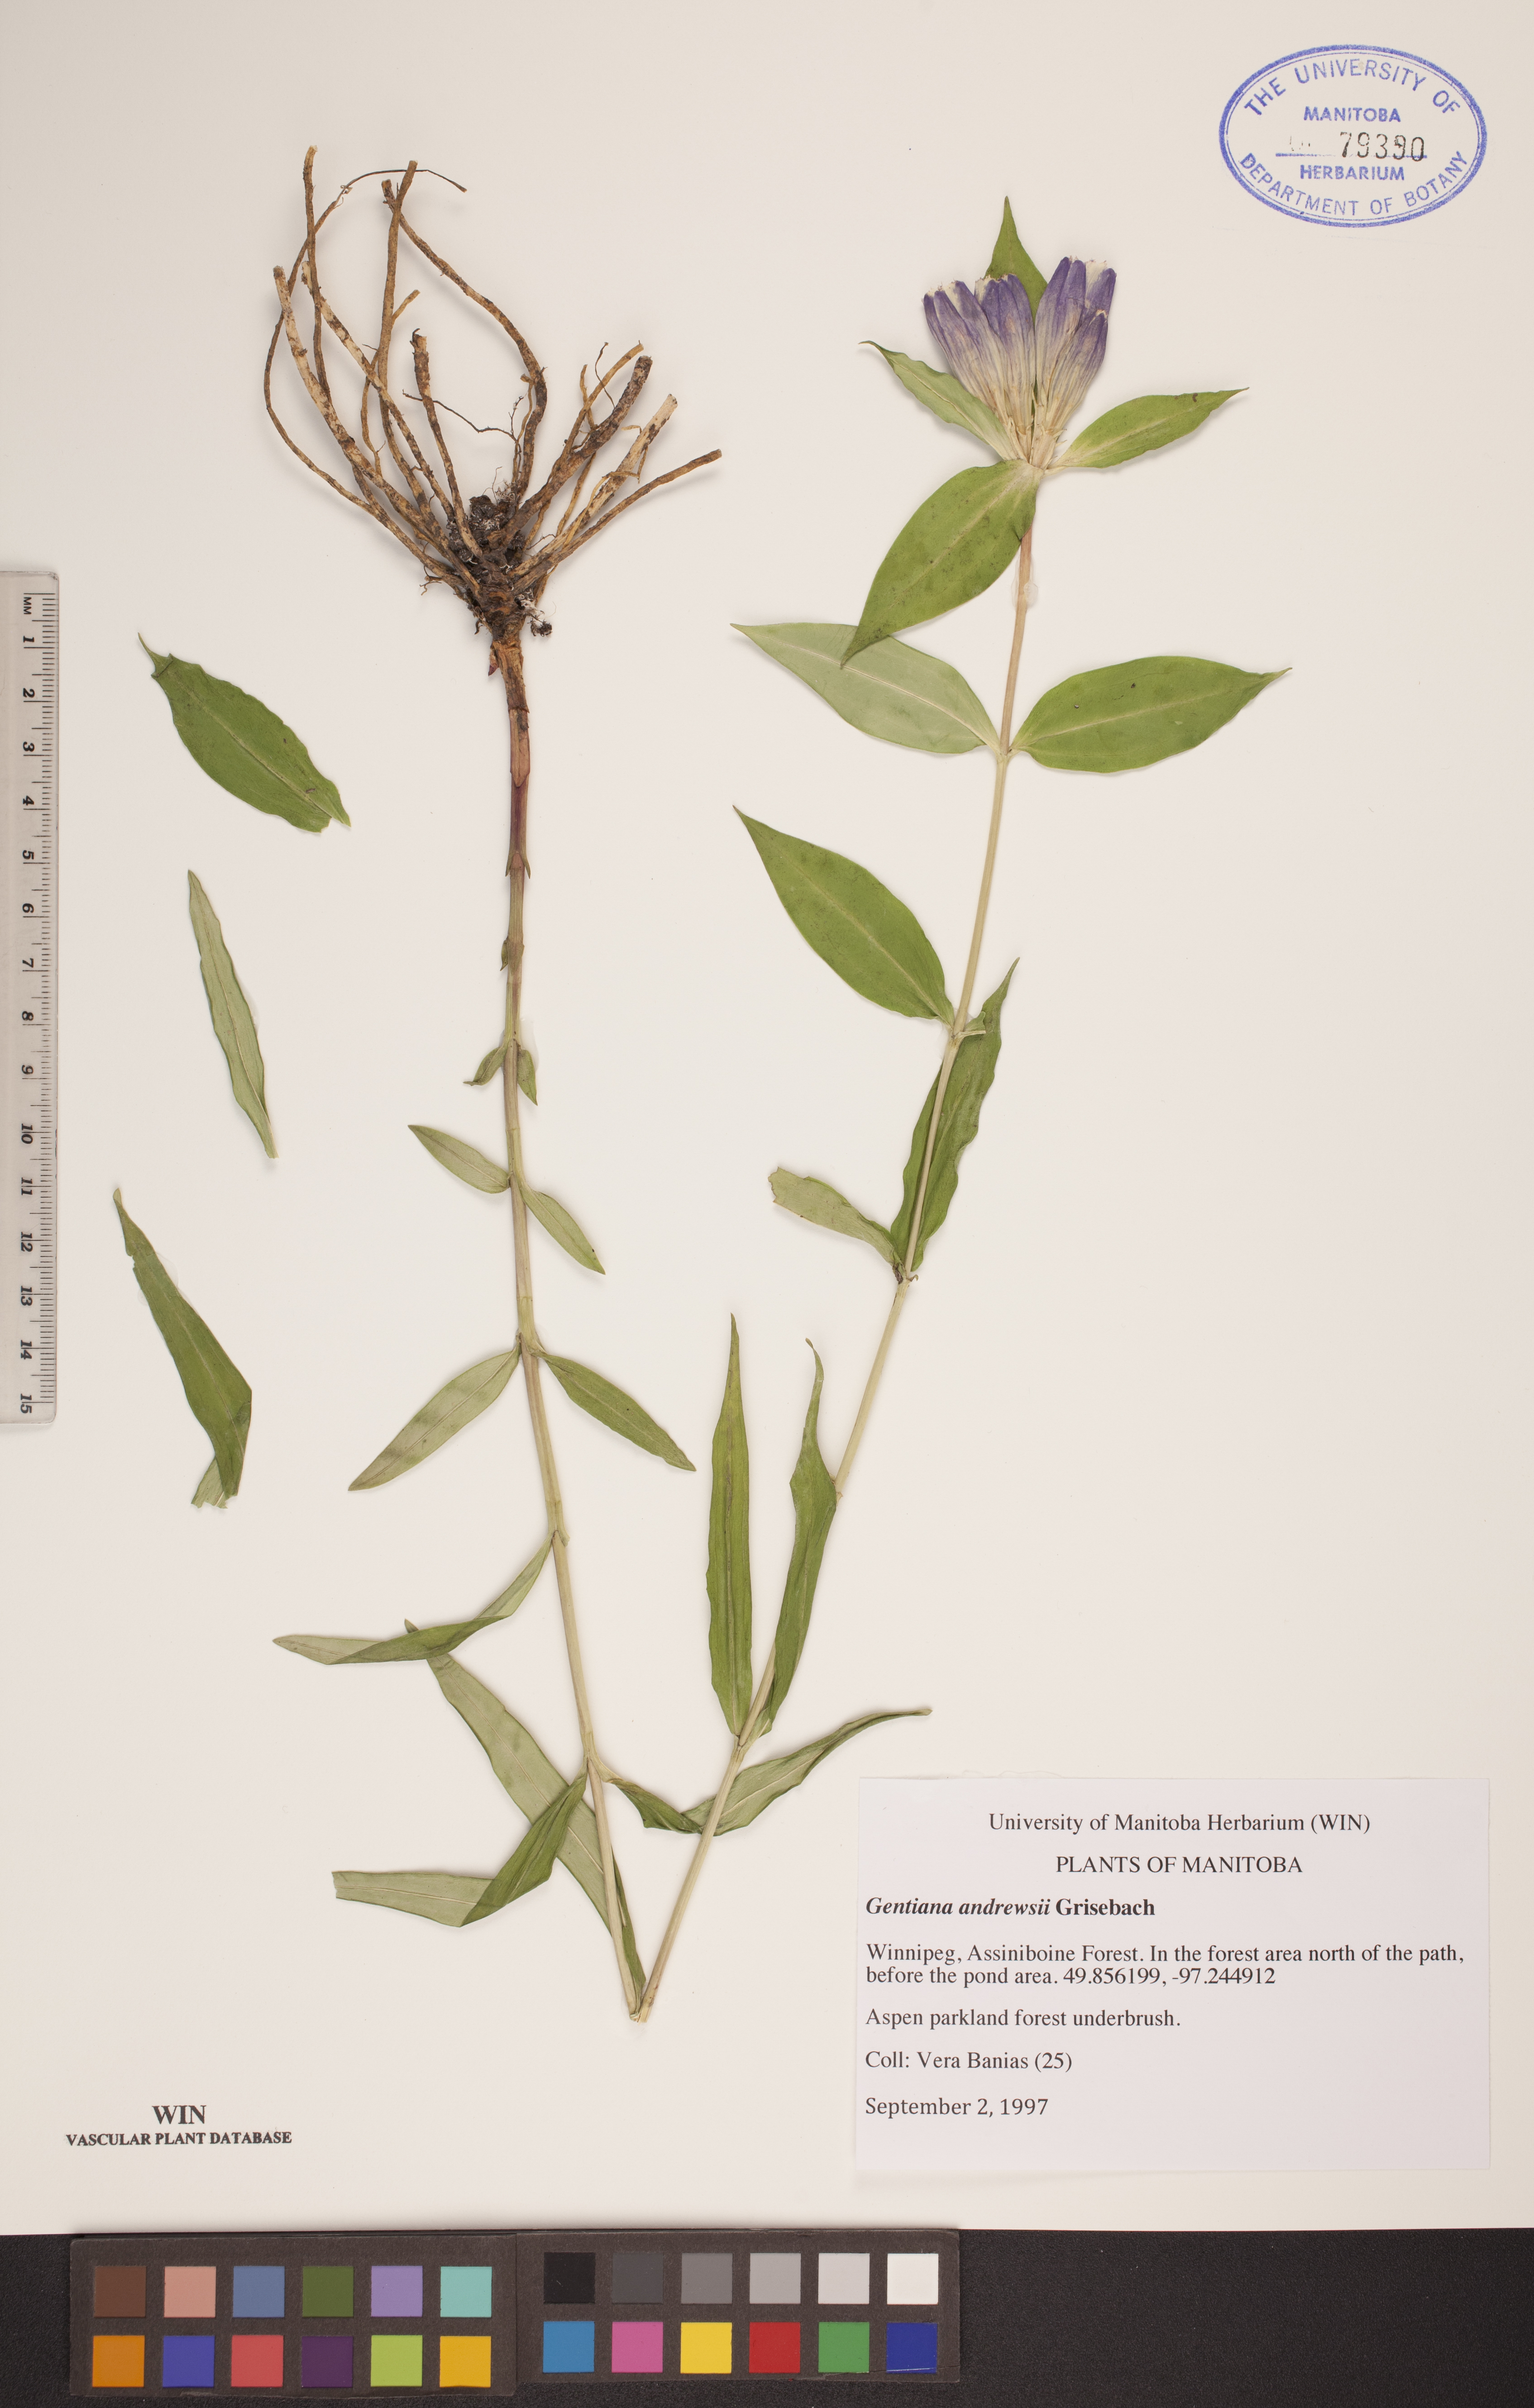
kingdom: Plantae
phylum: Tracheophyta
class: Magnoliopsida
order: Gentianales
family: Gentianaceae
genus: Gentiana
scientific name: Gentiana andrewsii
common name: Bottle gentian
